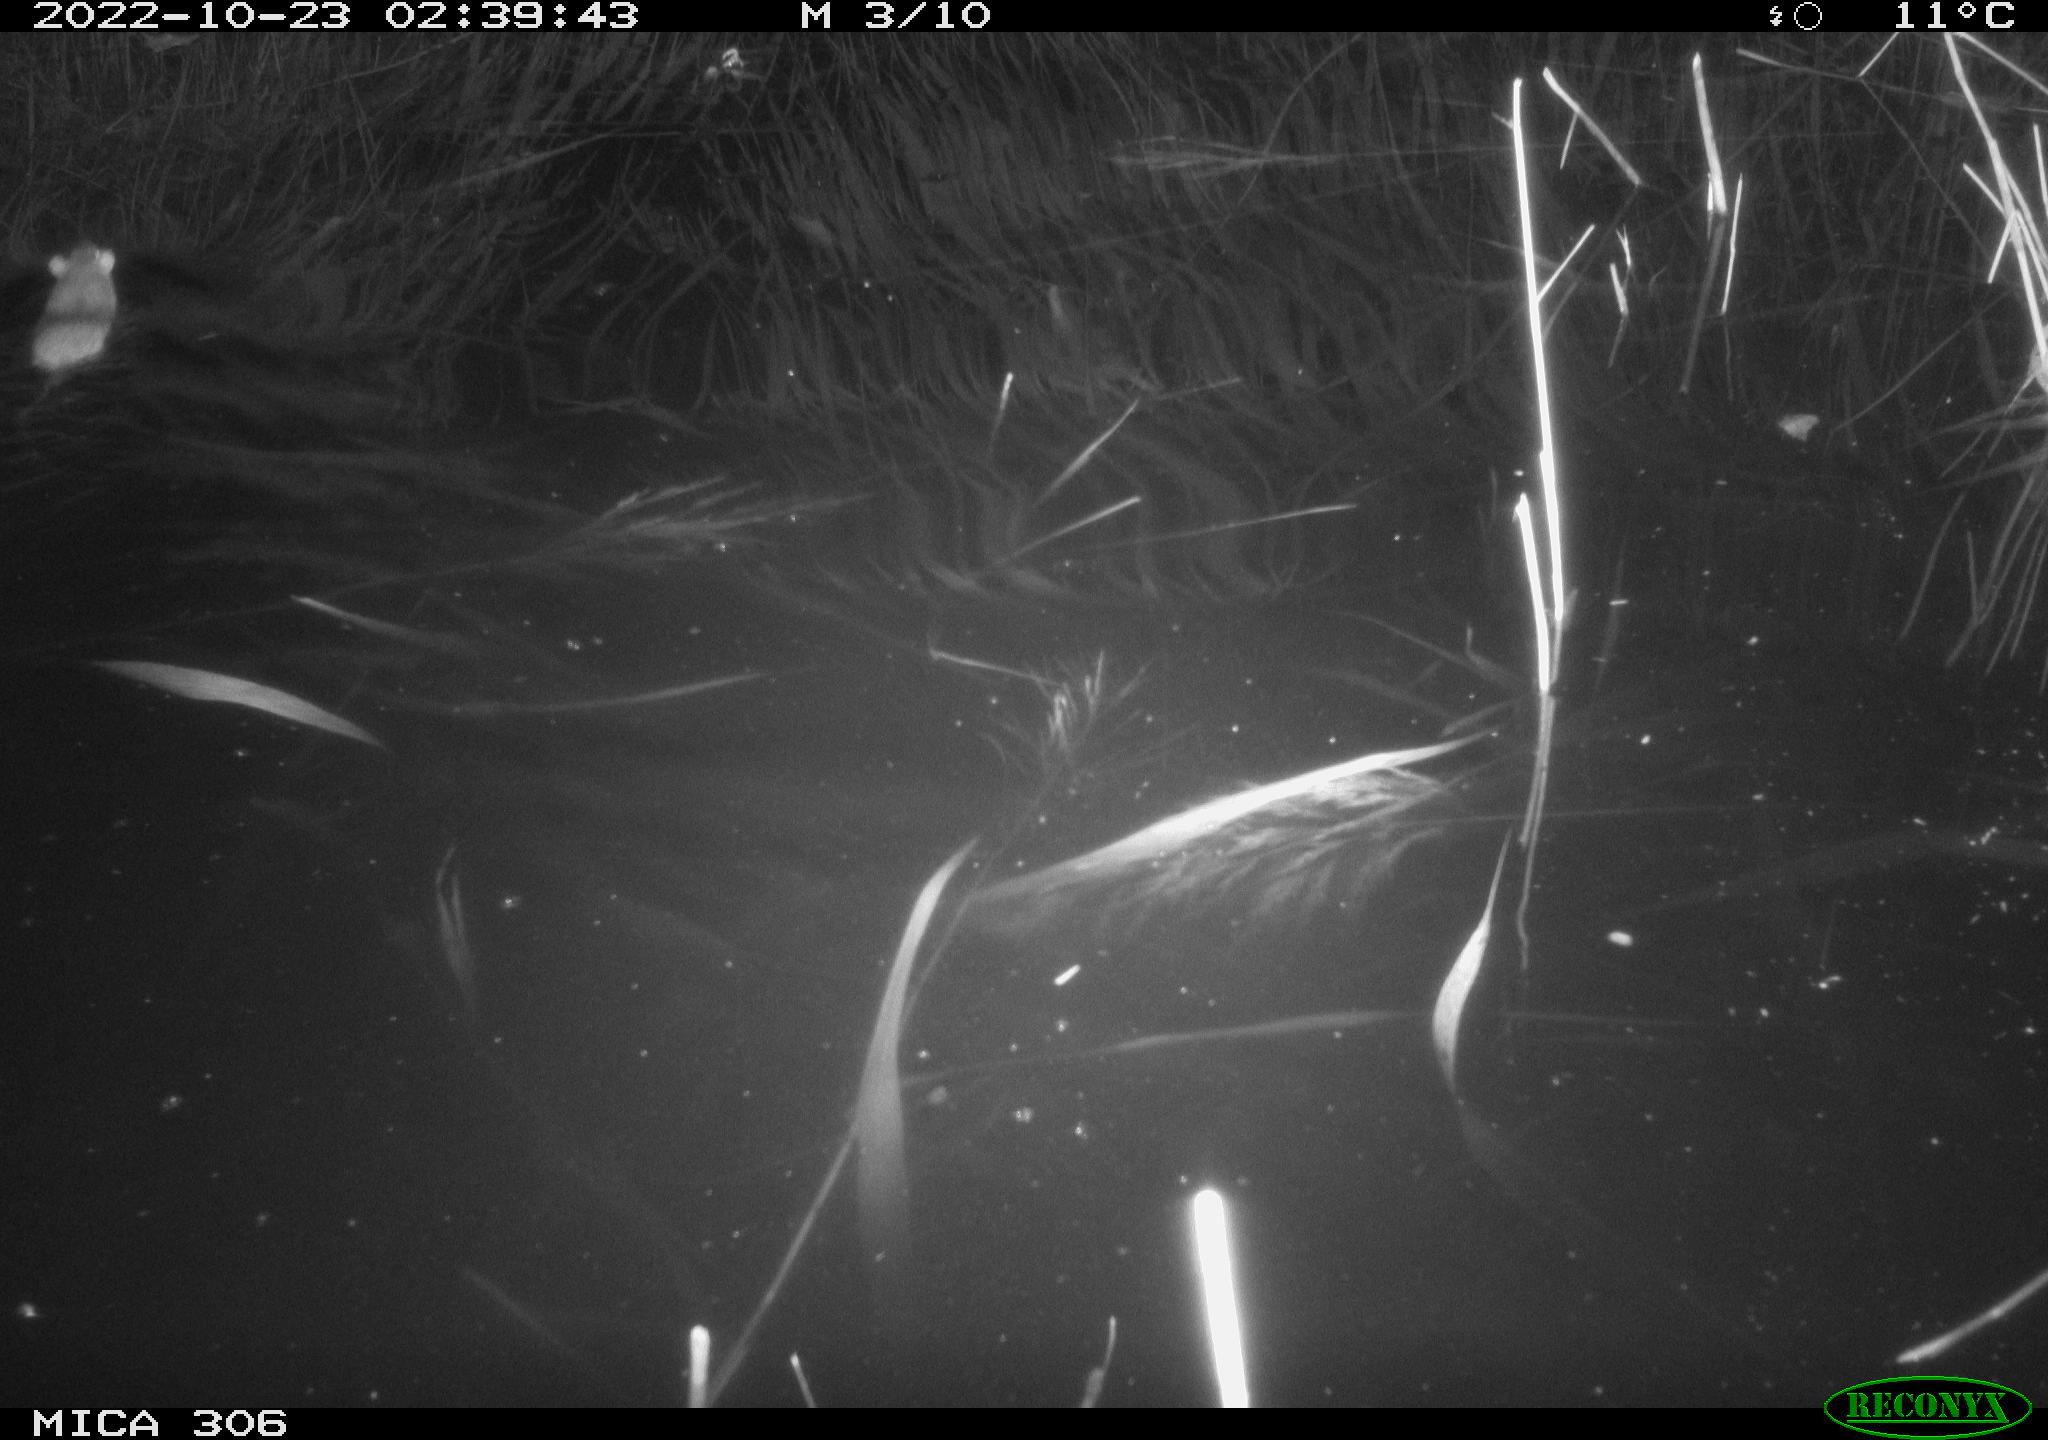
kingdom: Animalia
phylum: Chordata
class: Mammalia
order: Rodentia
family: Muridae
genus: Rattus
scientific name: Rattus norvegicus
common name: Brown rat
